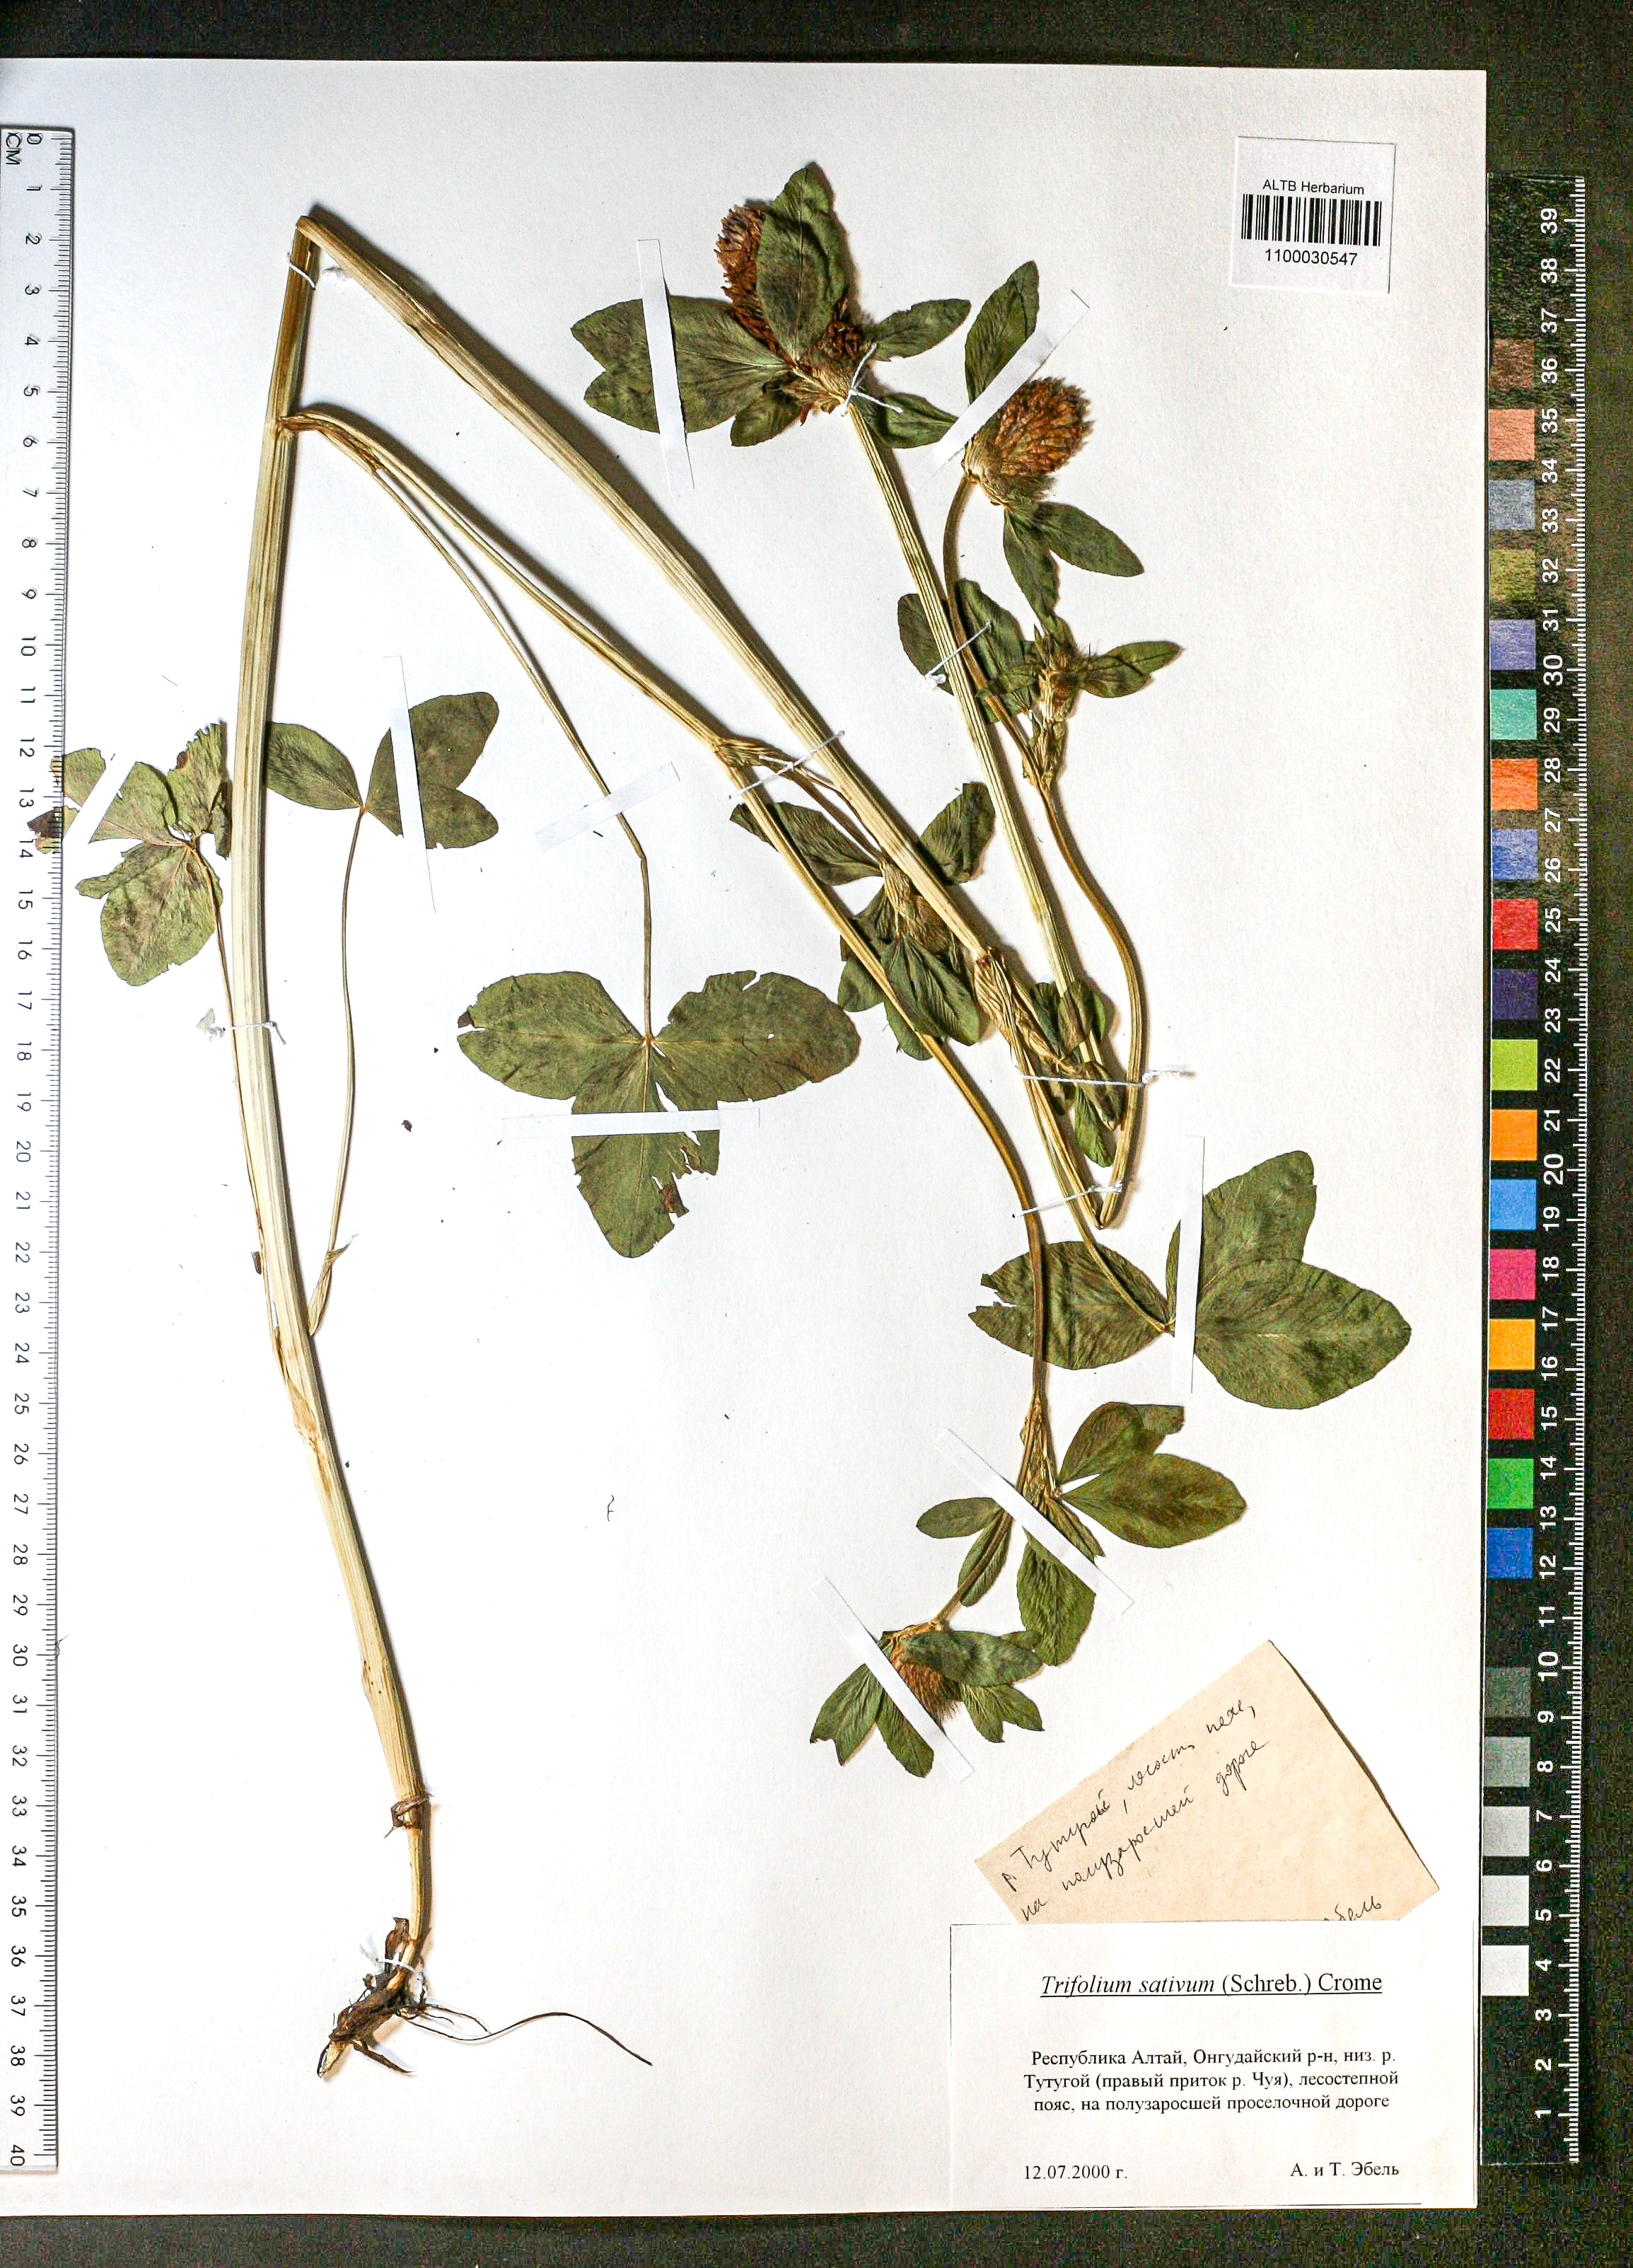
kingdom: Plantae
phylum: Tracheophyta
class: Magnoliopsida
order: Fabales
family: Fabaceae
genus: Trifolium
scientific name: Trifolium pratense
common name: Red clover
